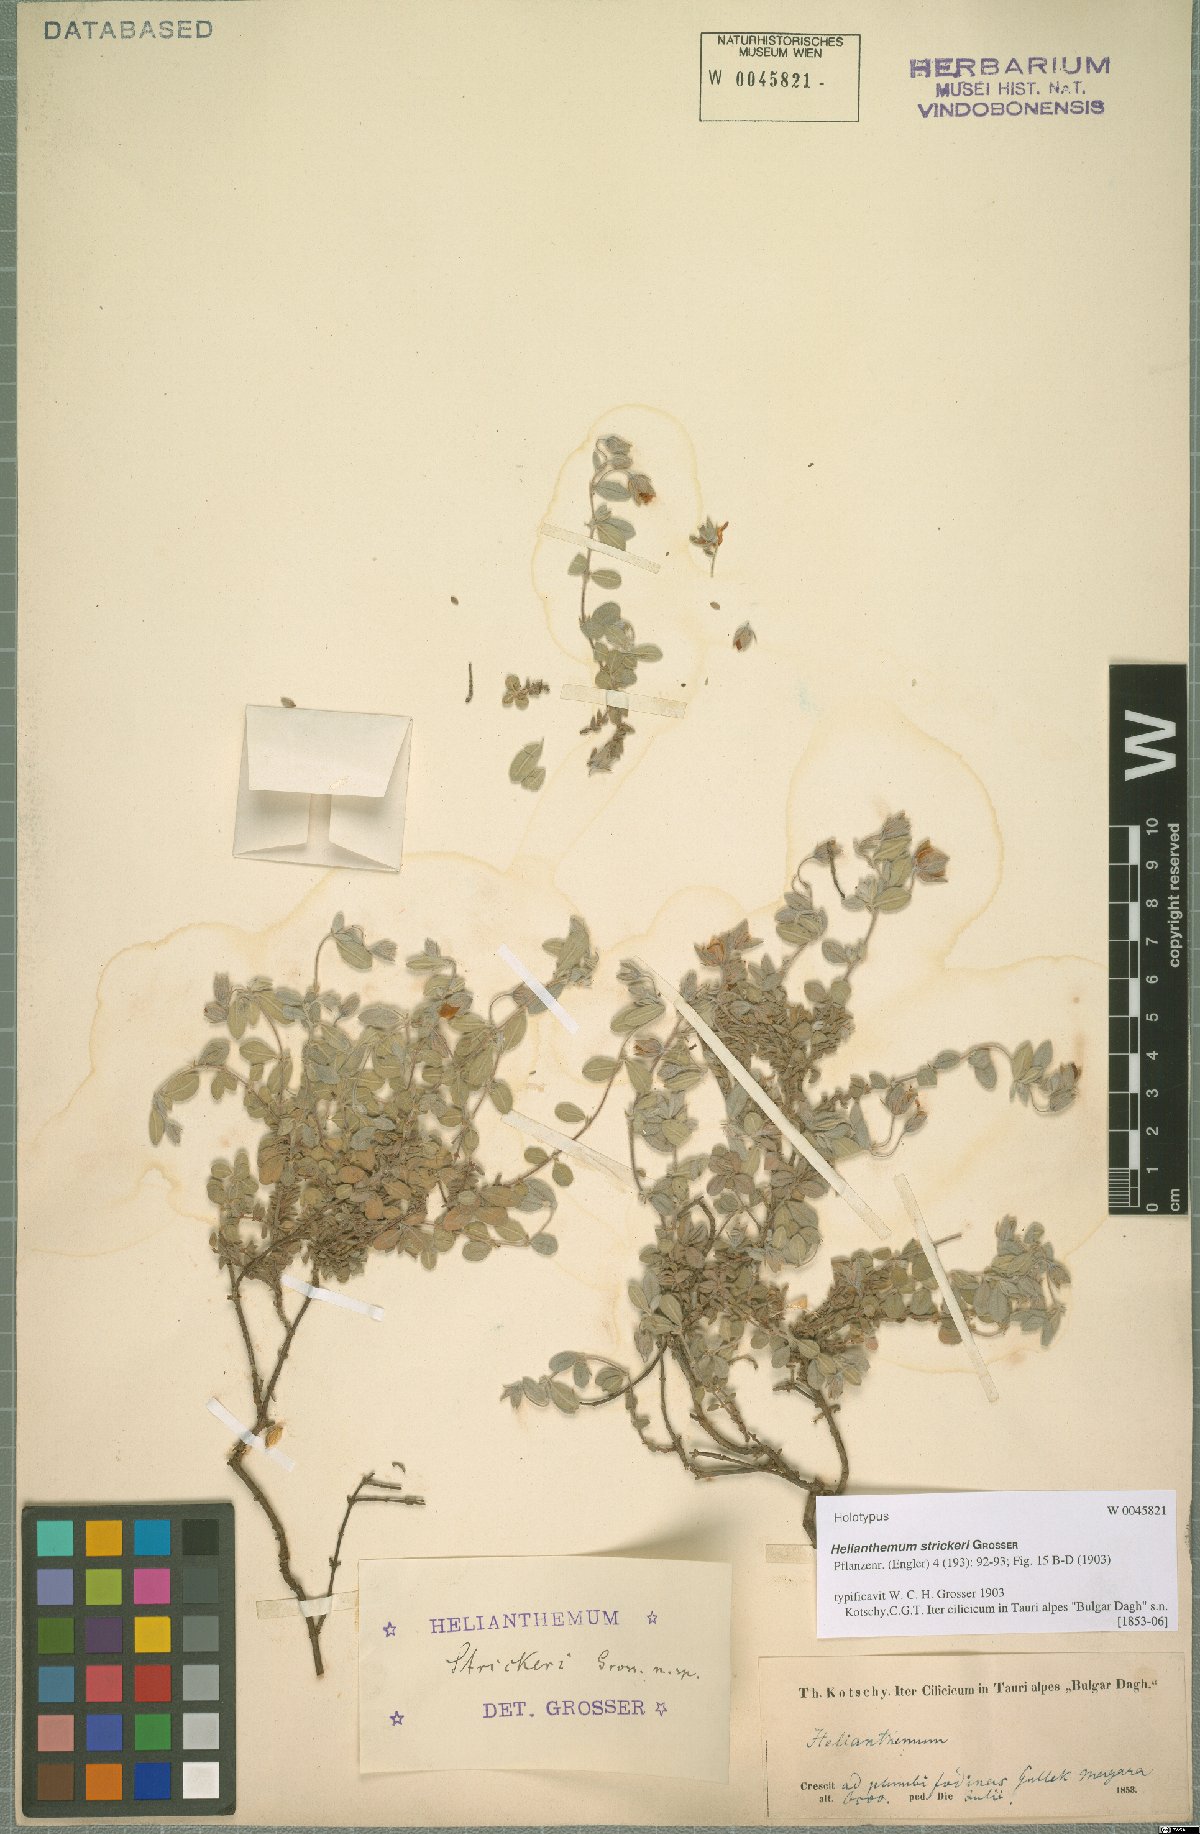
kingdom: Plantae
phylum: Tracheophyta
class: Magnoliopsida
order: Malvales
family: Cistaceae
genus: Helianthemum
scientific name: Helianthemum strickeri
